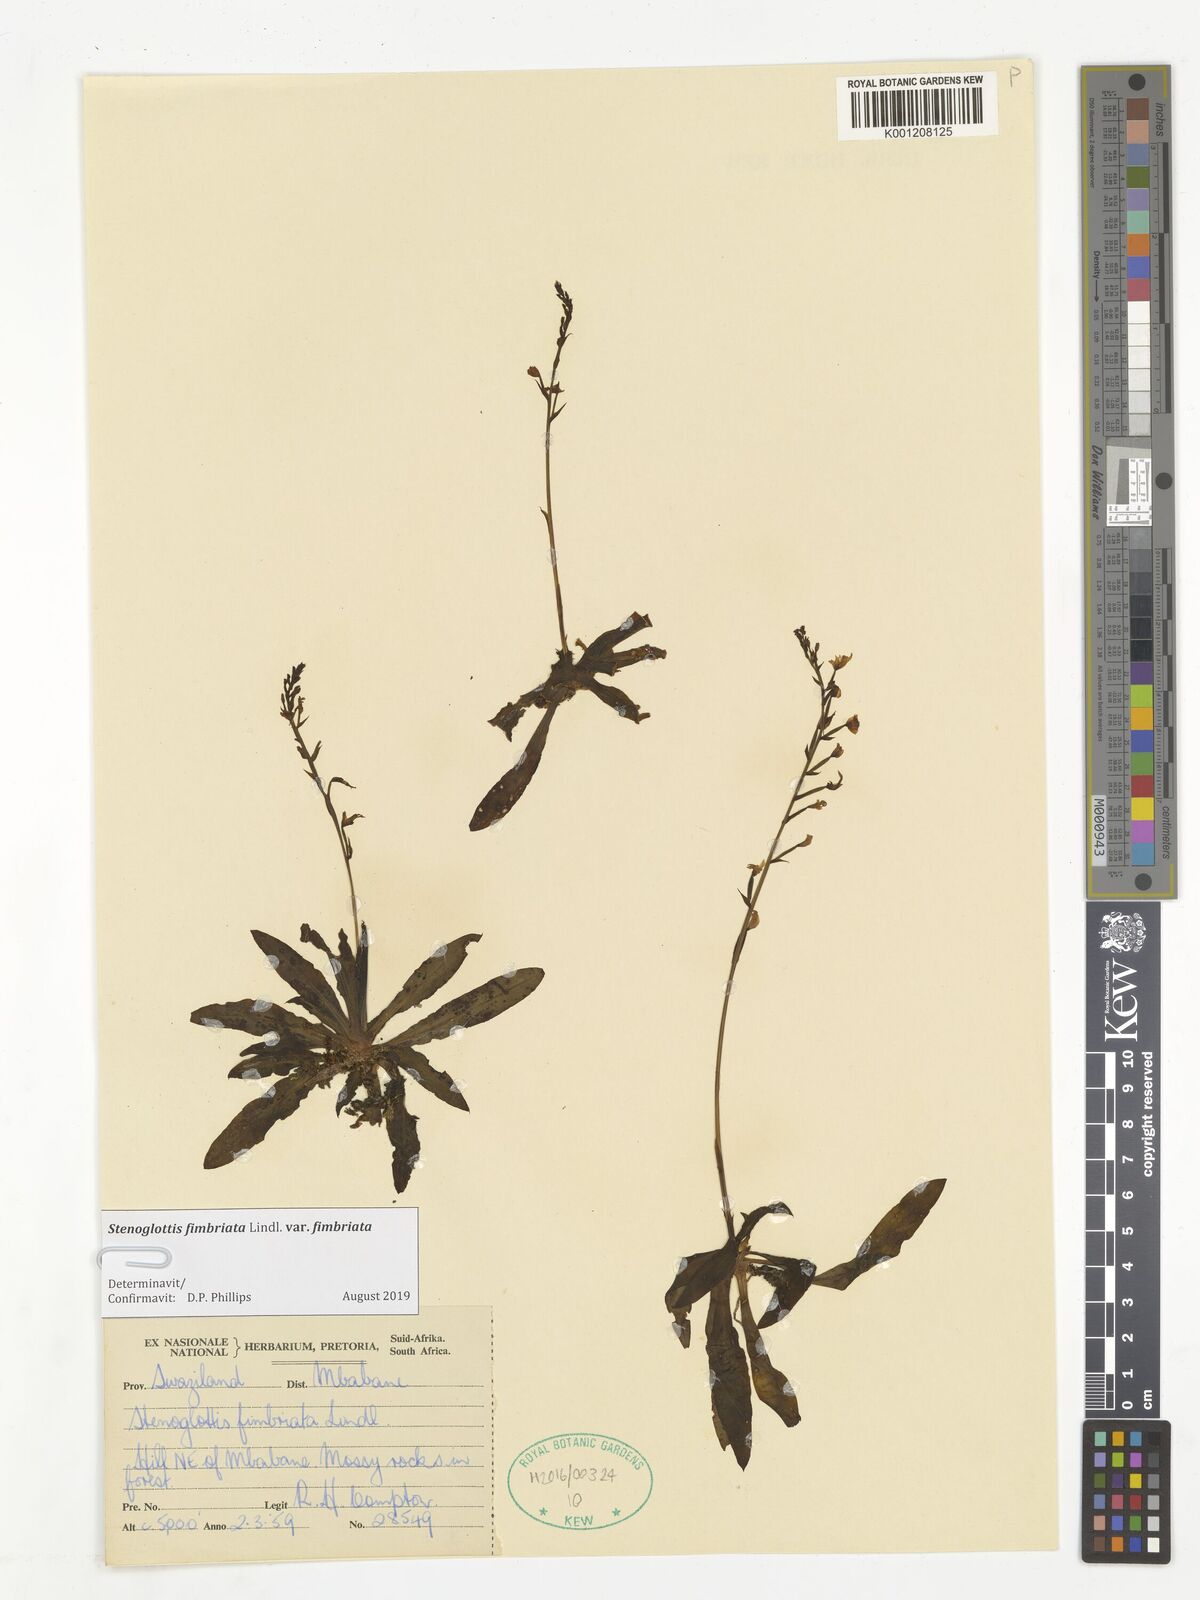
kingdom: Plantae
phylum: Tracheophyta
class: Liliopsida
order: Asparagales
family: Orchidaceae
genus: Stenoglottis
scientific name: Stenoglottis fimbriata
